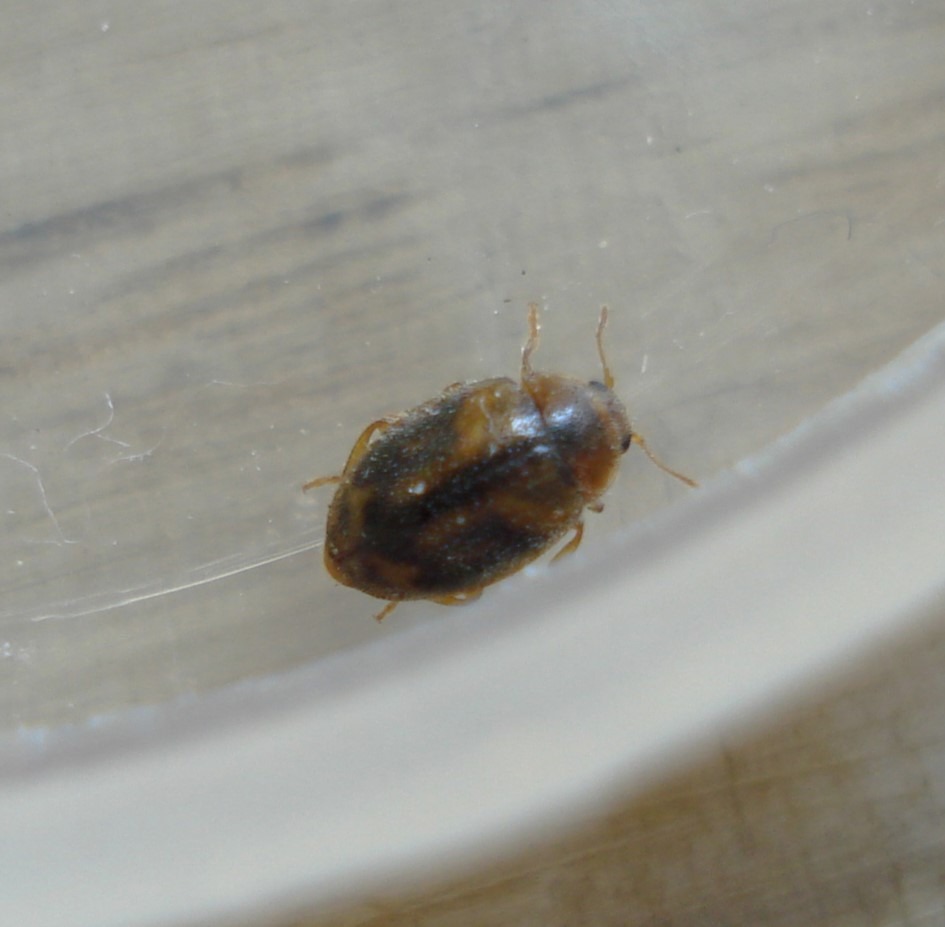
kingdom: Animalia
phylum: Arthropoda
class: Insecta
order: Coleoptera
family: Coccinellidae
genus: Rhyzobius
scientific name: Rhyzobius chrysomeloides
